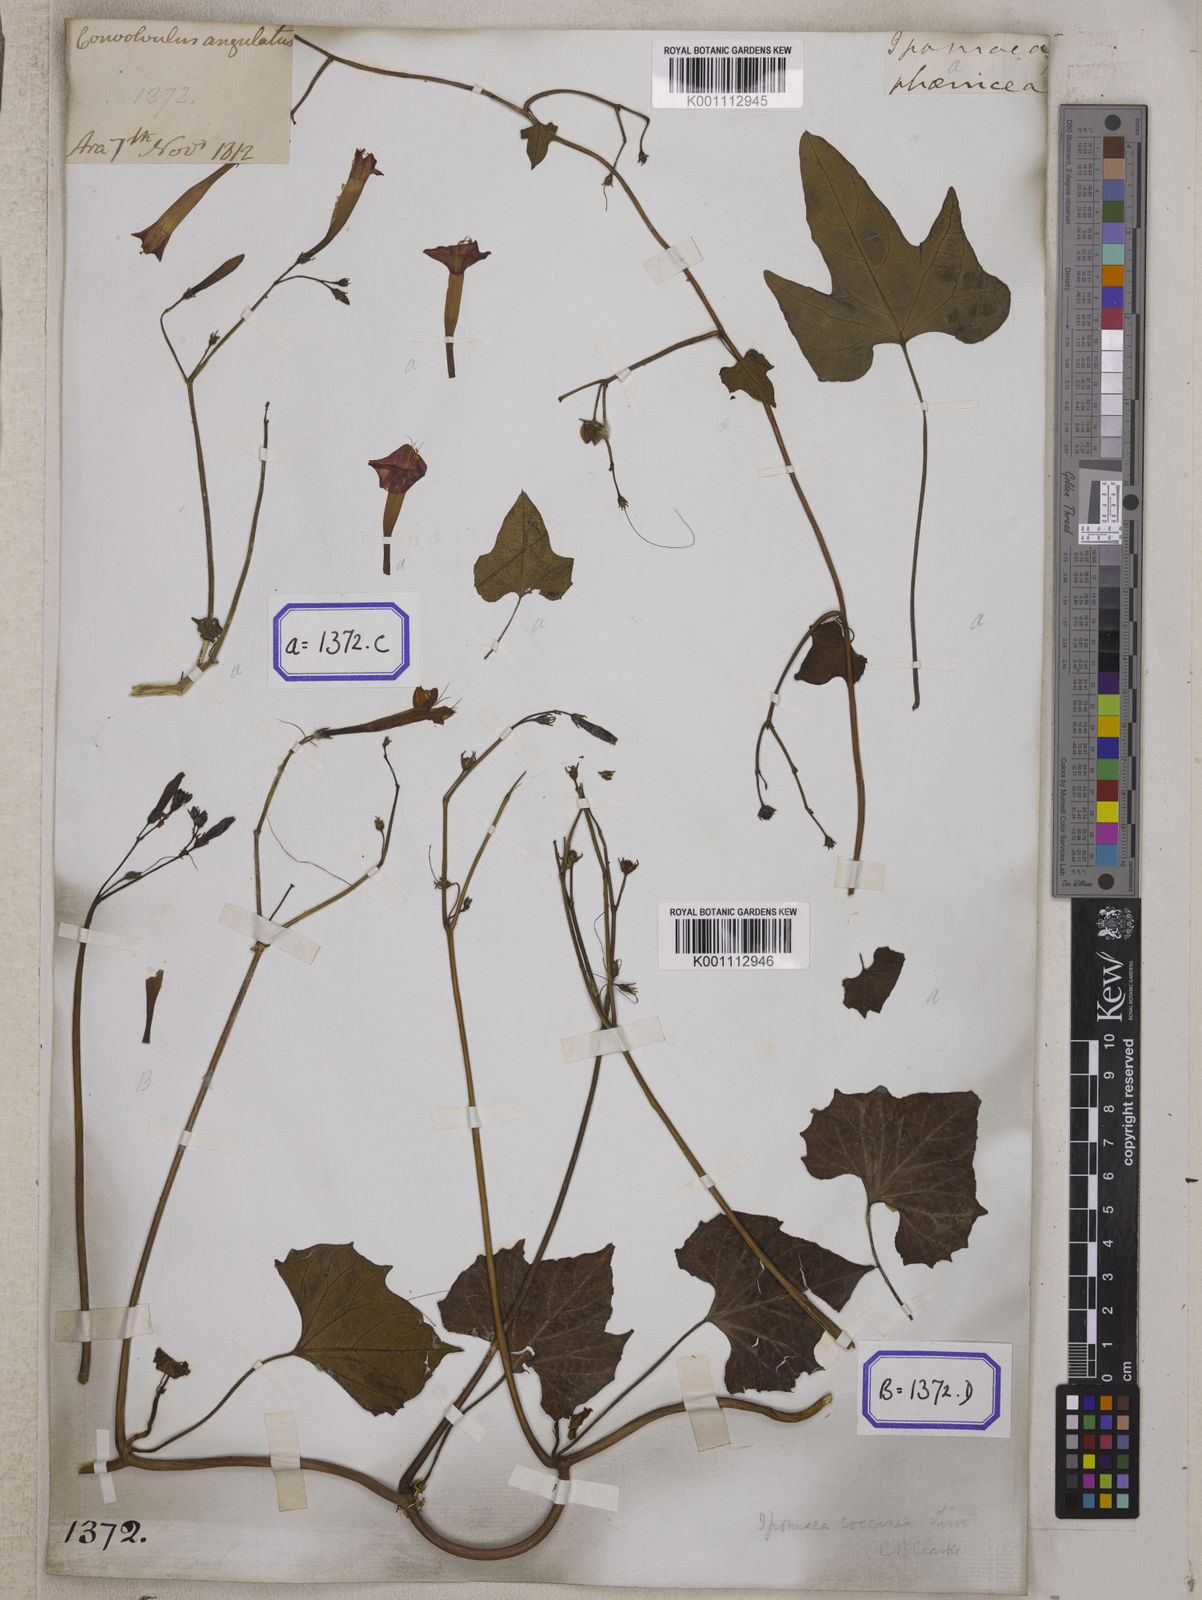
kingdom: Plantae
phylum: Tracheophyta
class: Magnoliopsida
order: Solanales
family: Convolvulaceae
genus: Convolvulus
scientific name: Convolvulus
